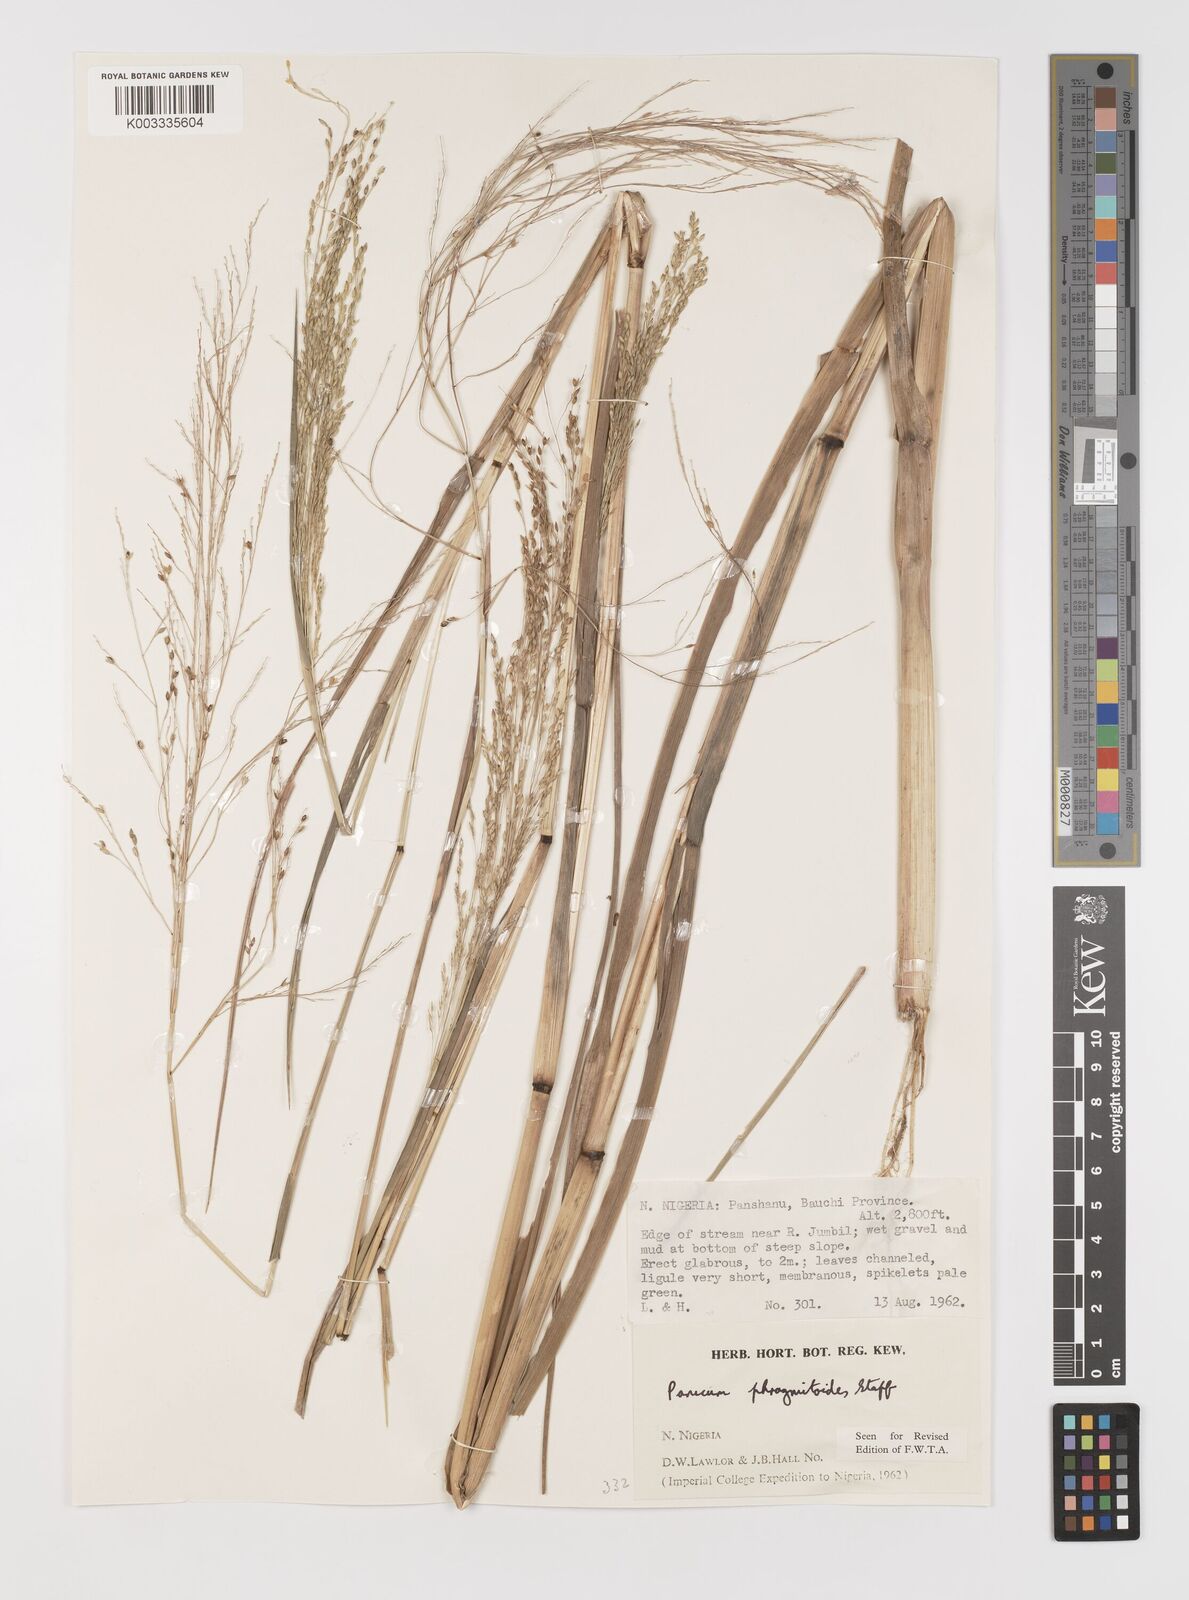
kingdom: Plantae
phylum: Tracheophyta
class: Liliopsida
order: Poales
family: Poaceae
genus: Panicum
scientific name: Panicum phragmitoides
